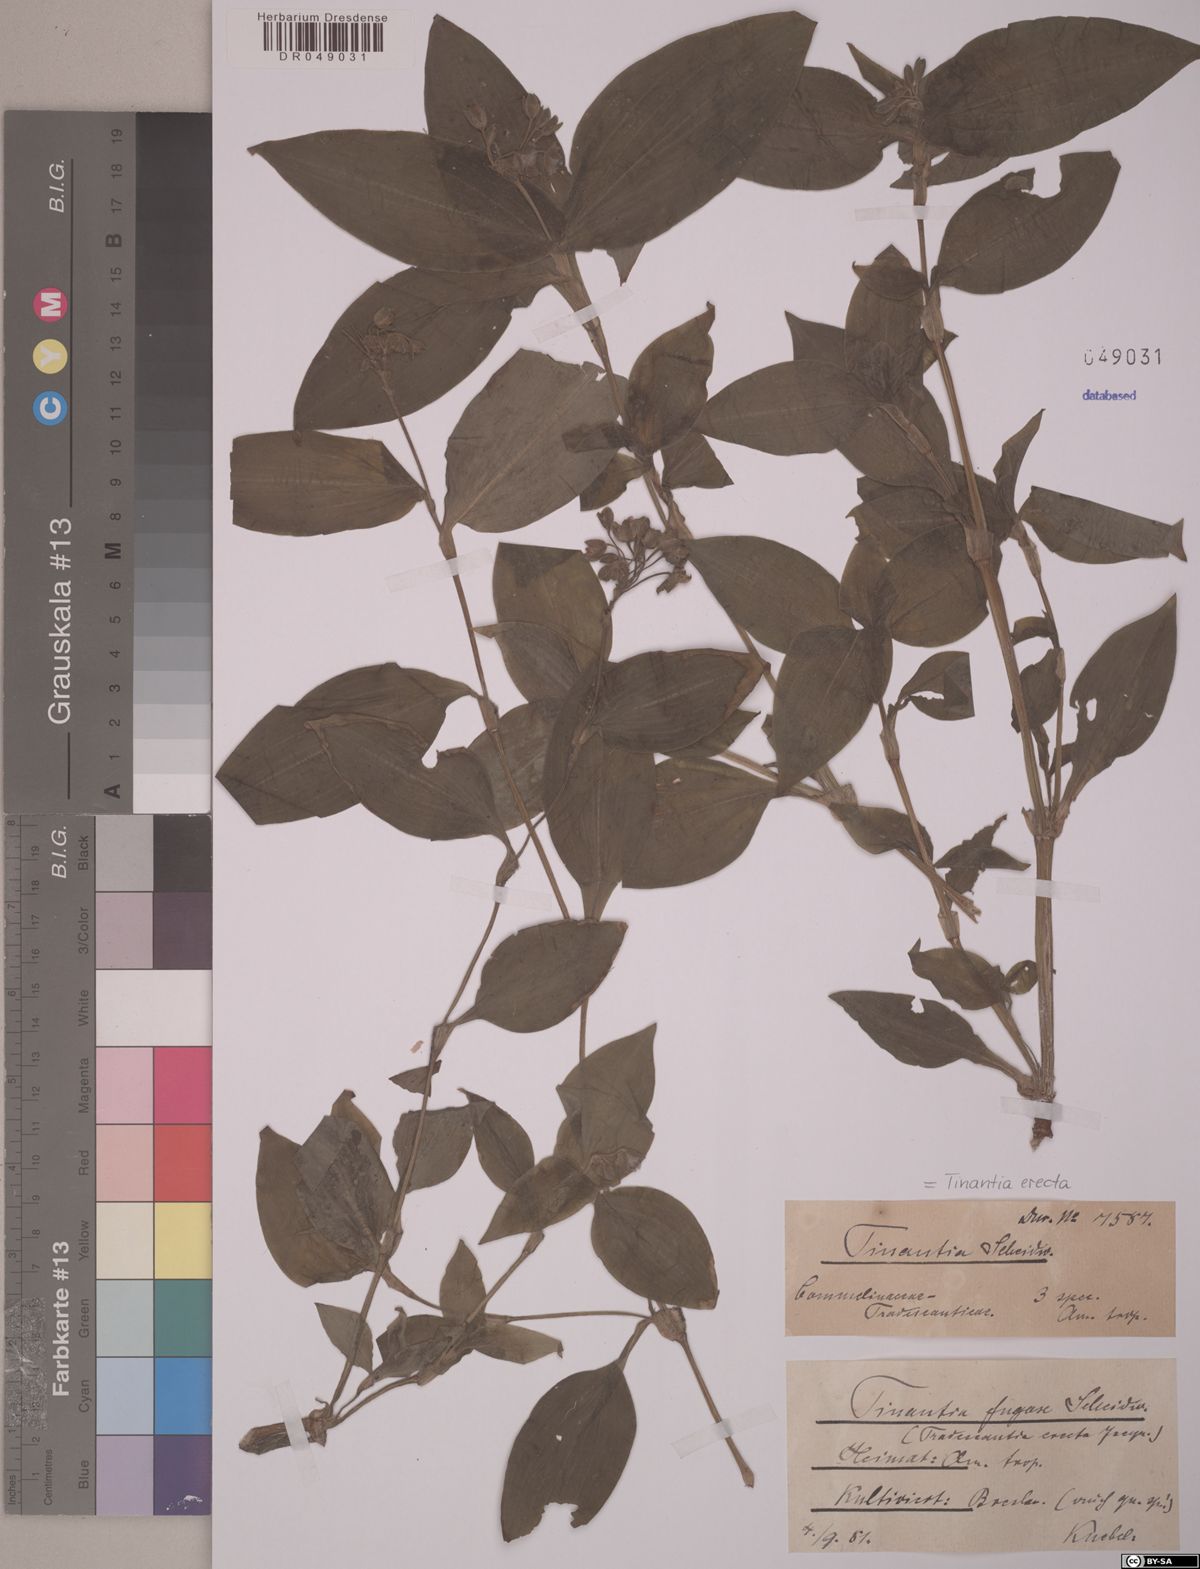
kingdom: Plantae
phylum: Tracheophyta
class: Liliopsida
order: Commelinales
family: Commelinaceae
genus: Tinantia
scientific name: Tinantia erecta
